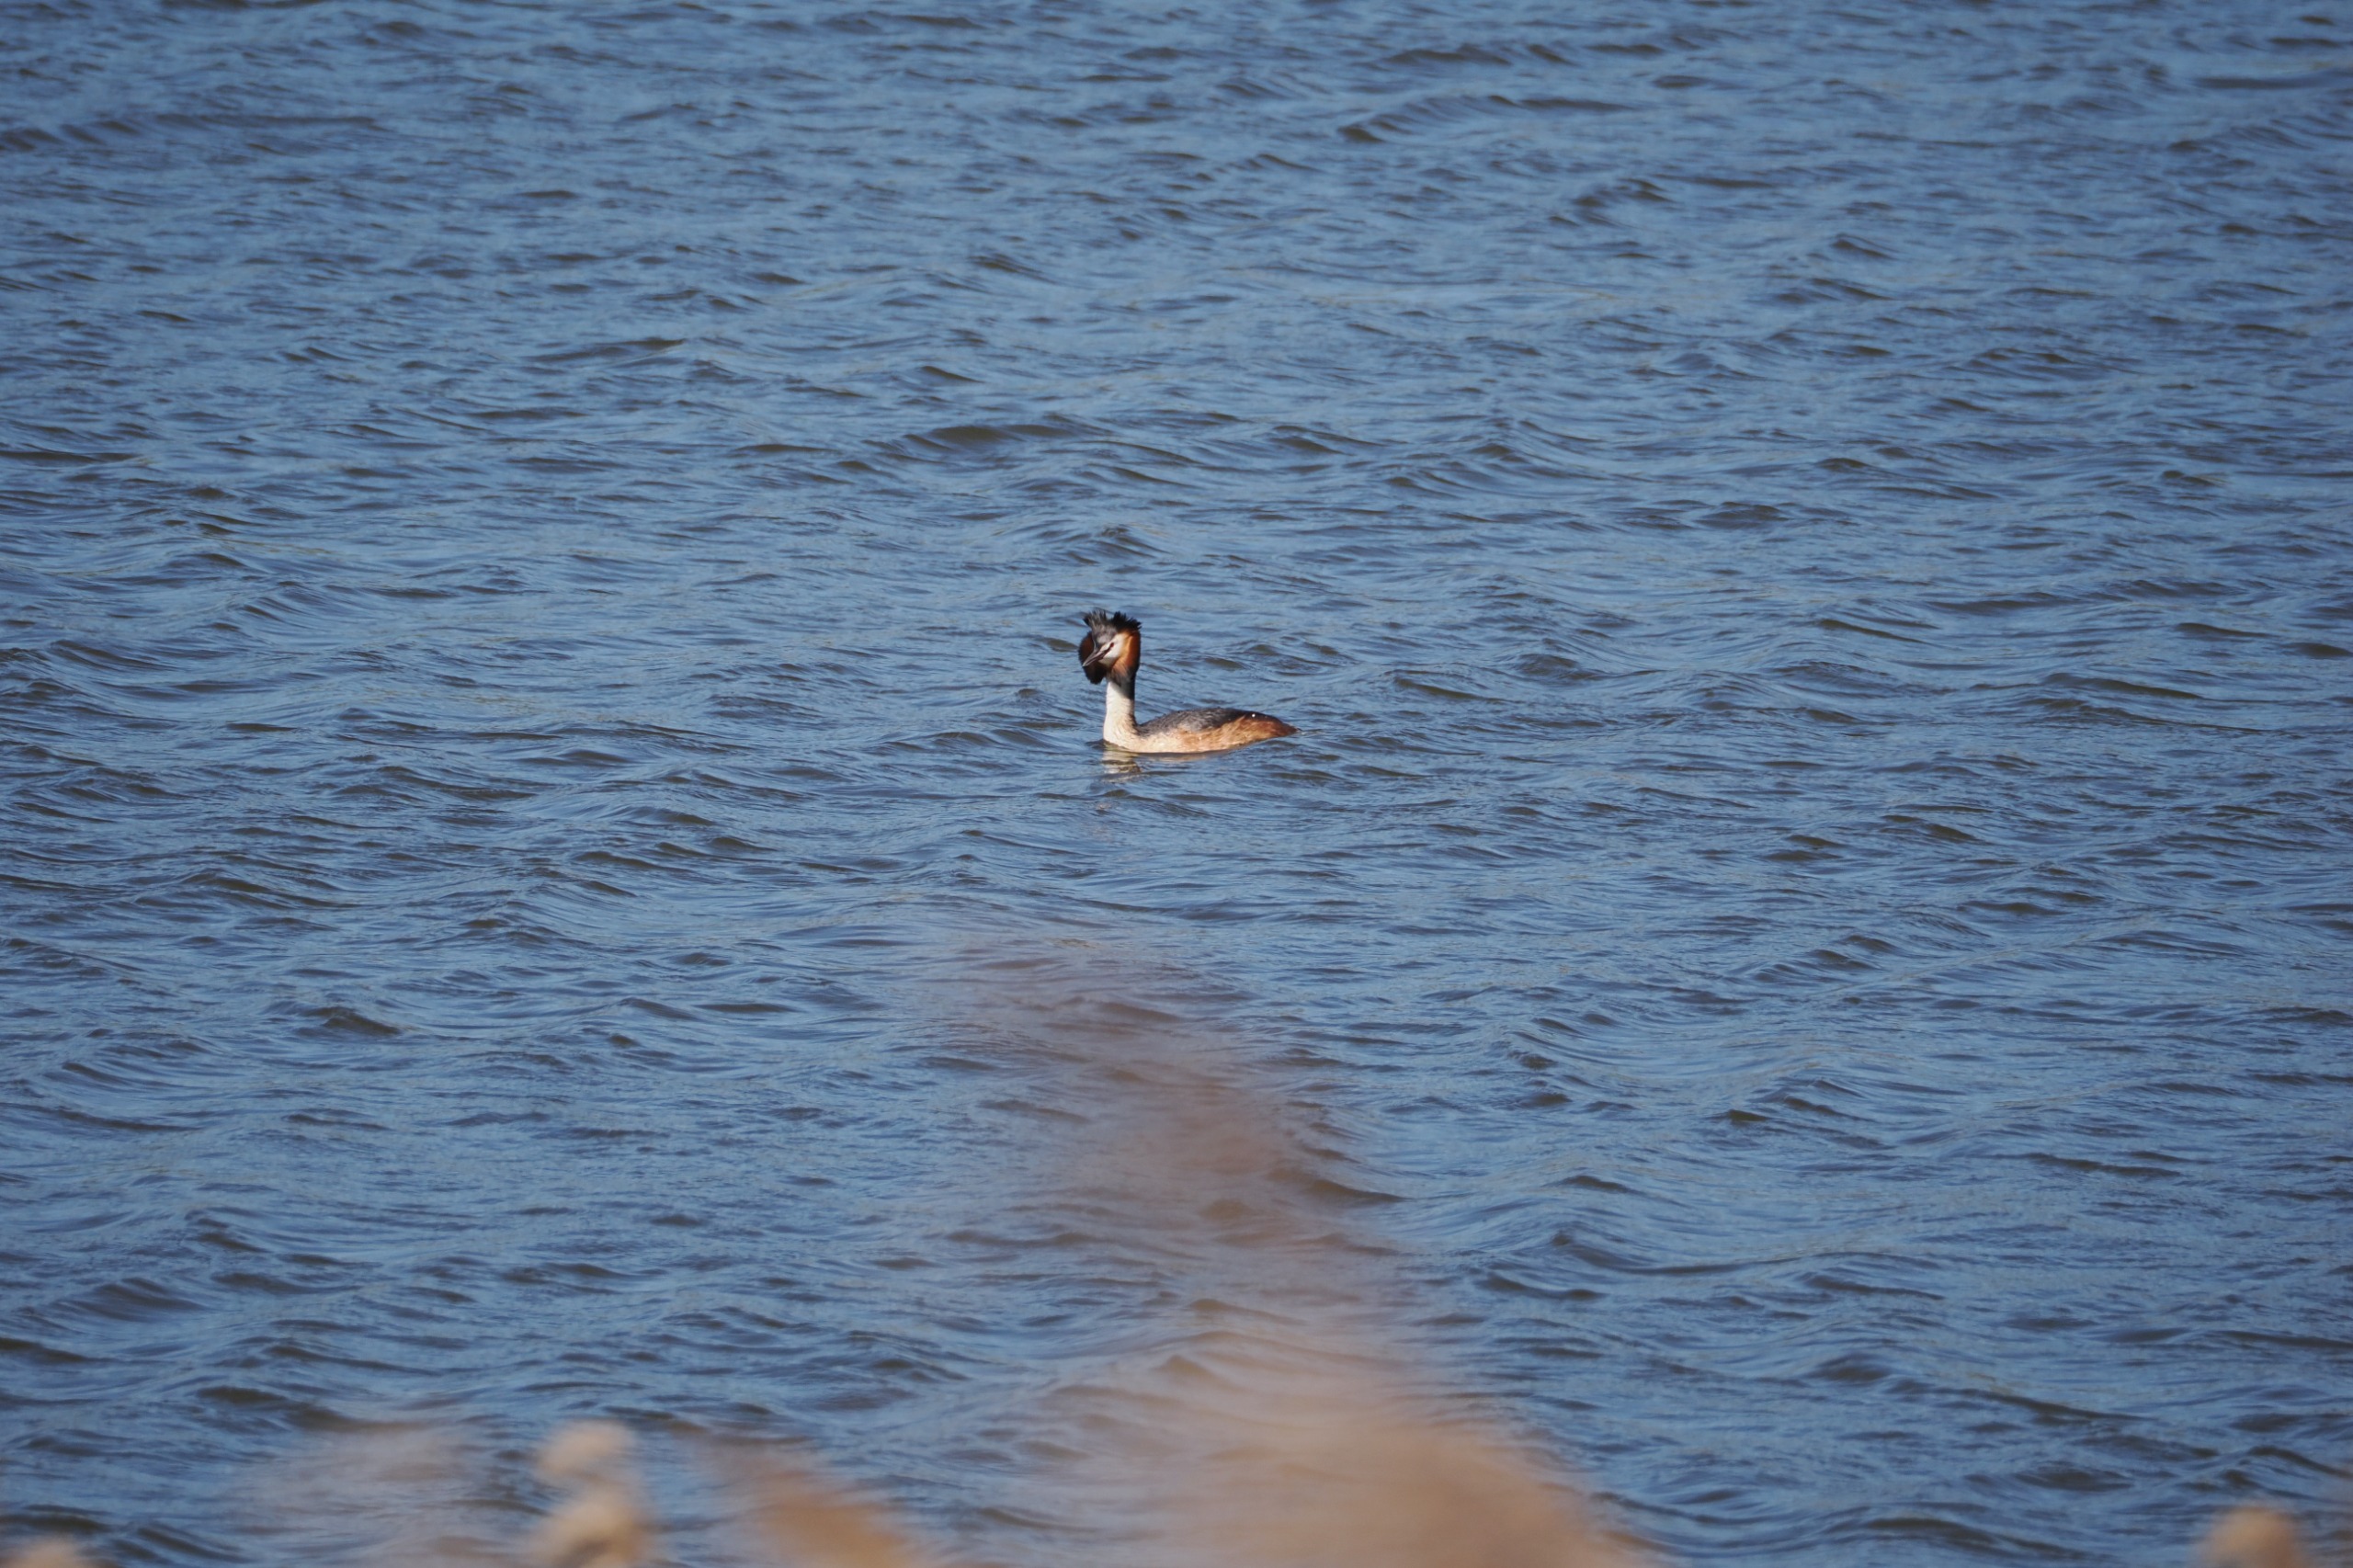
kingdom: Animalia
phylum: Chordata
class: Aves
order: Podicipediformes
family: Podicipedidae
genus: Podiceps
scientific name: Podiceps cristatus
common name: Toppet lappedykker
